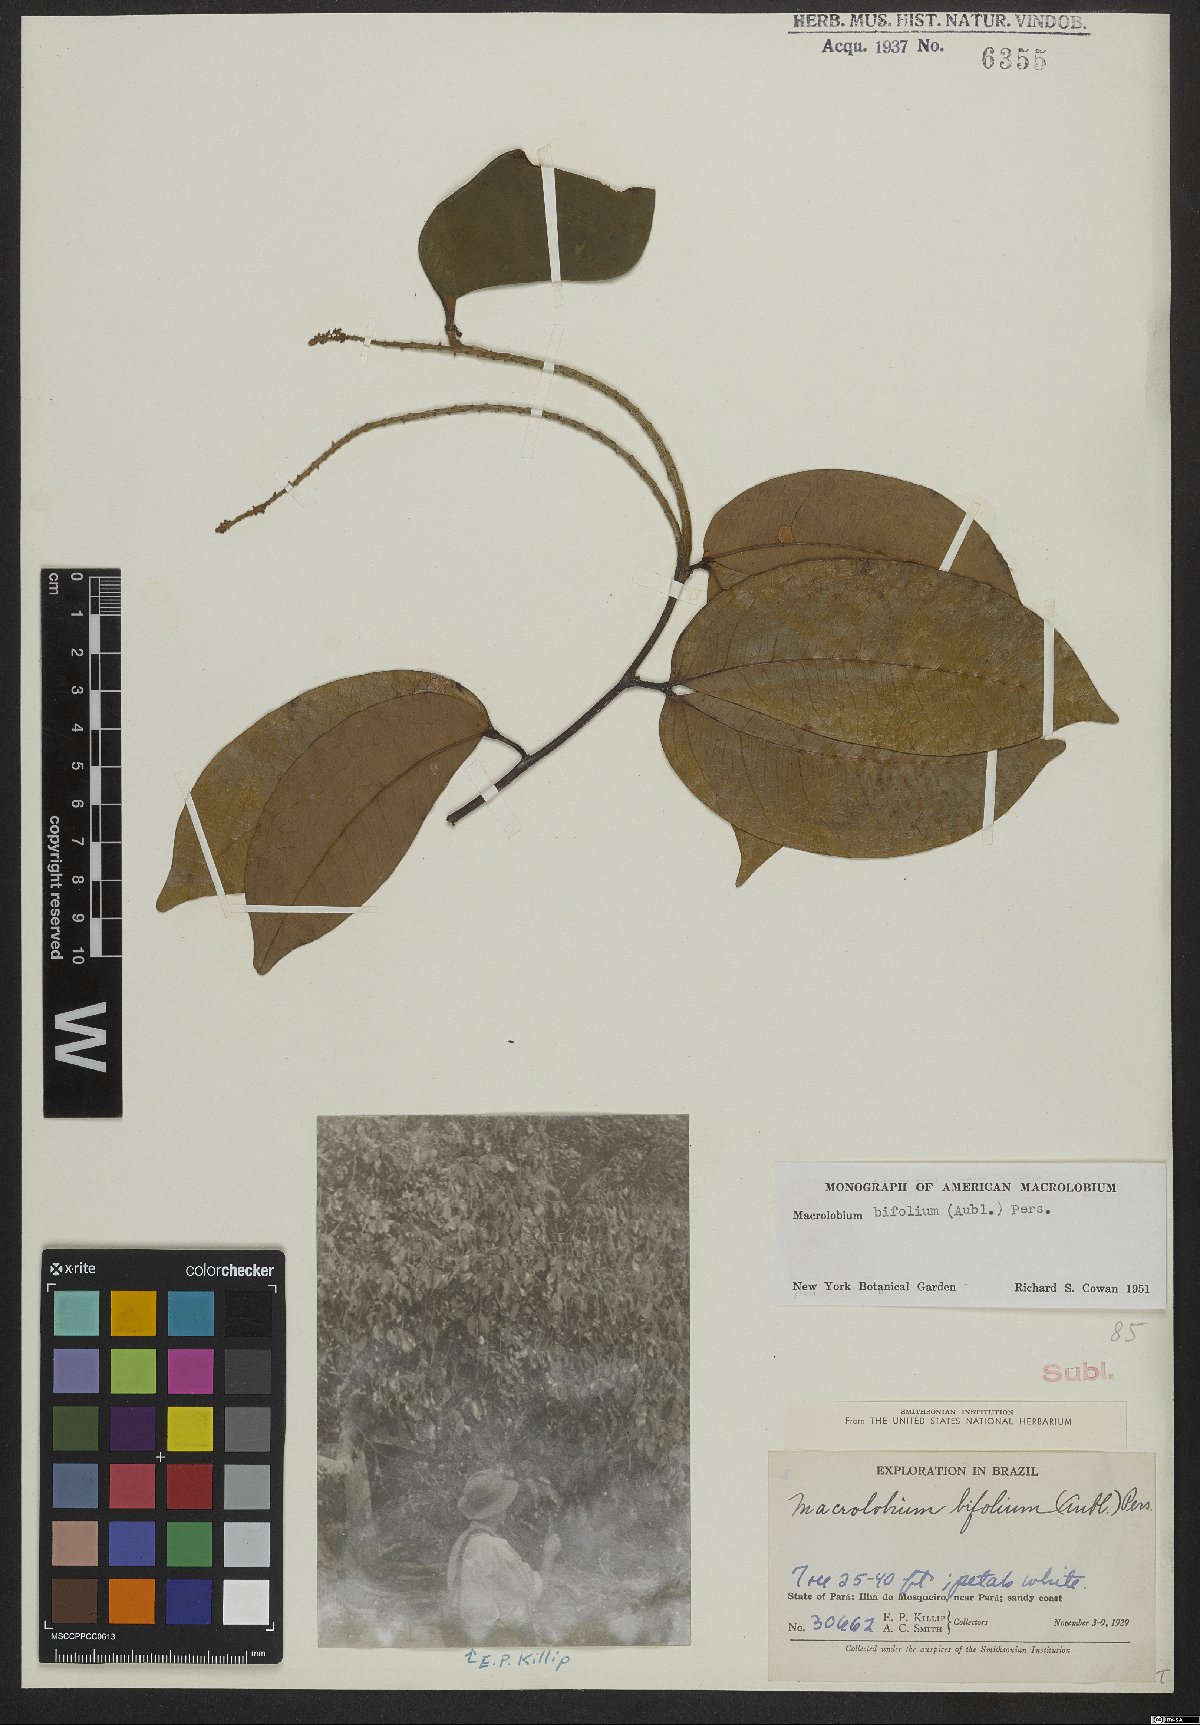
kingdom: Plantae
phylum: Tracheophyta
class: Magnoliopsida
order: Fabales
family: Fabaceae
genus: Macrolobium
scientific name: Macrolobium bifolium
